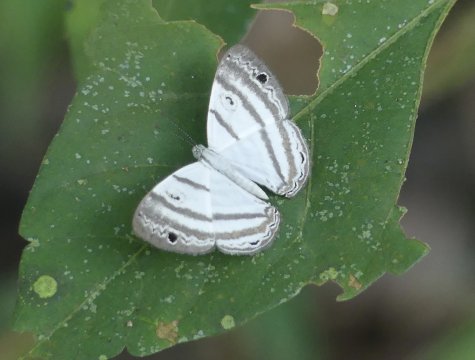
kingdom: Animalia
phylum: Arthropoda
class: Insecta
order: Lepidoptera
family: Riodinidae
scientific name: Riodinidae
